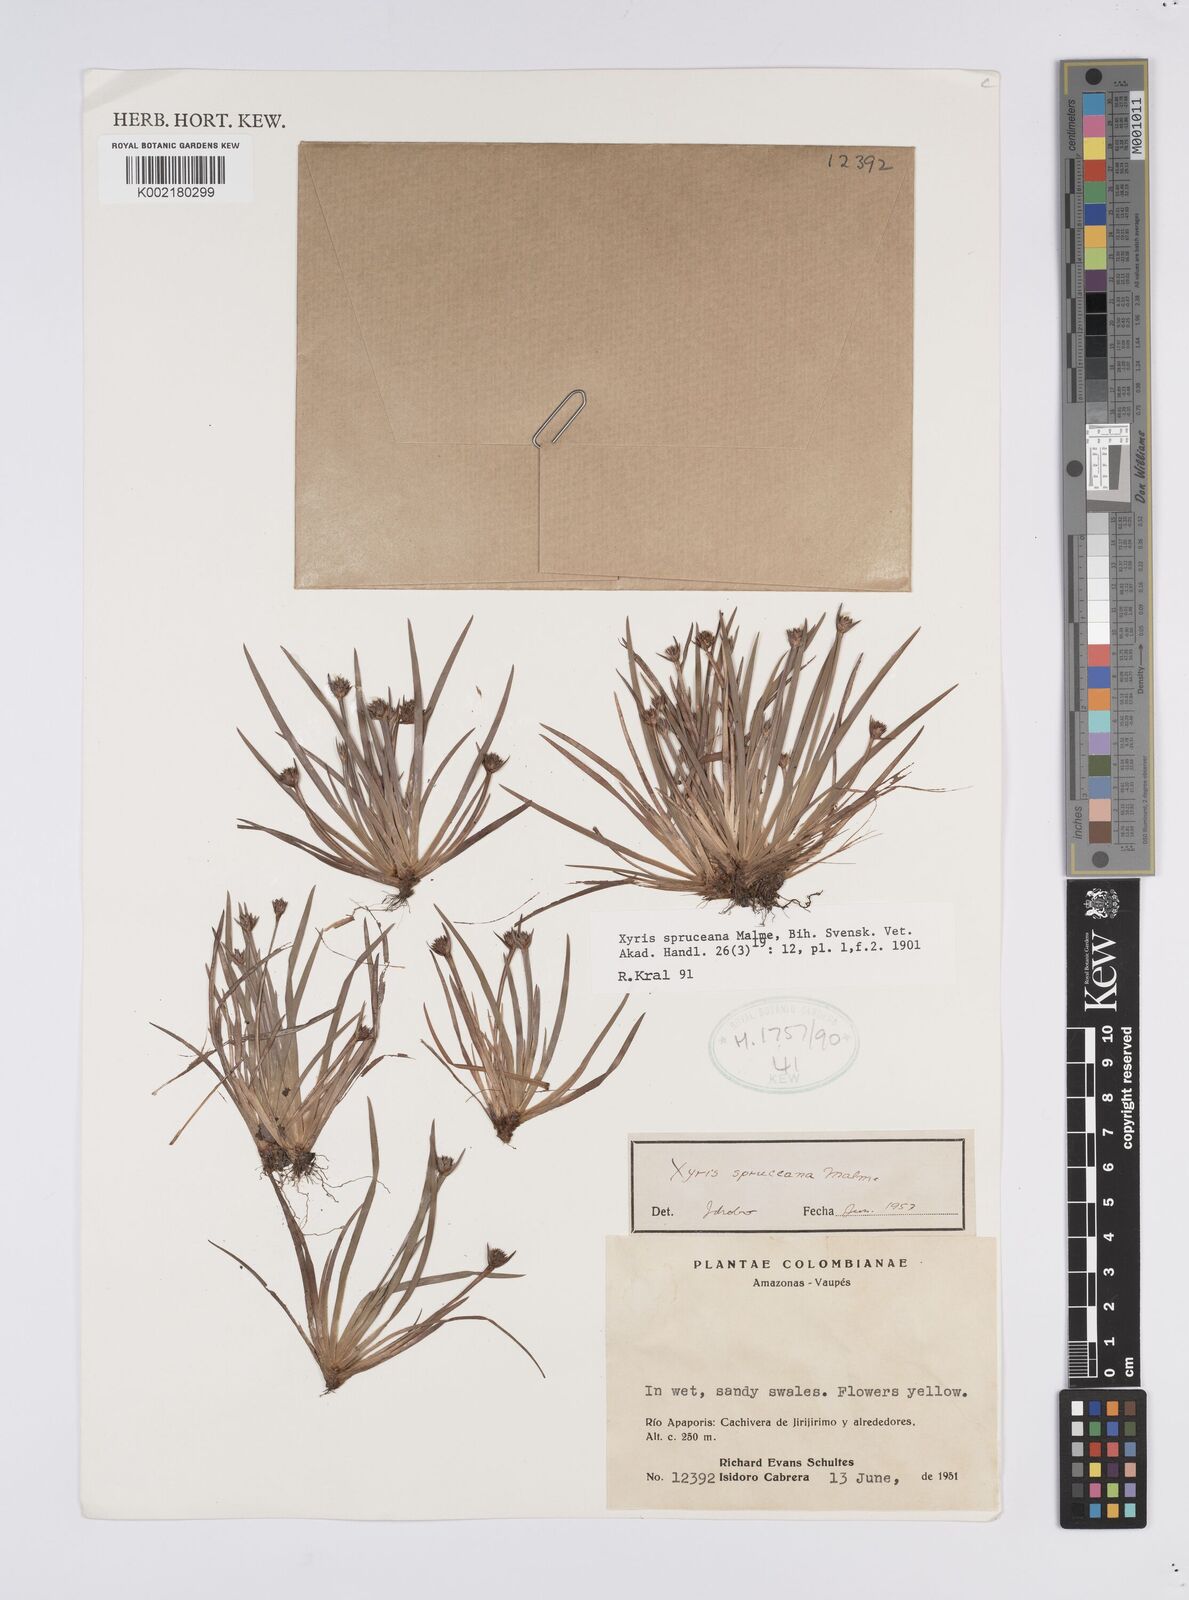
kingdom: Plantae
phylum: Tracheophyta
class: Liliopsida
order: Poales
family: Xyridaceae
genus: Xyris
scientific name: Xyris spruceana
